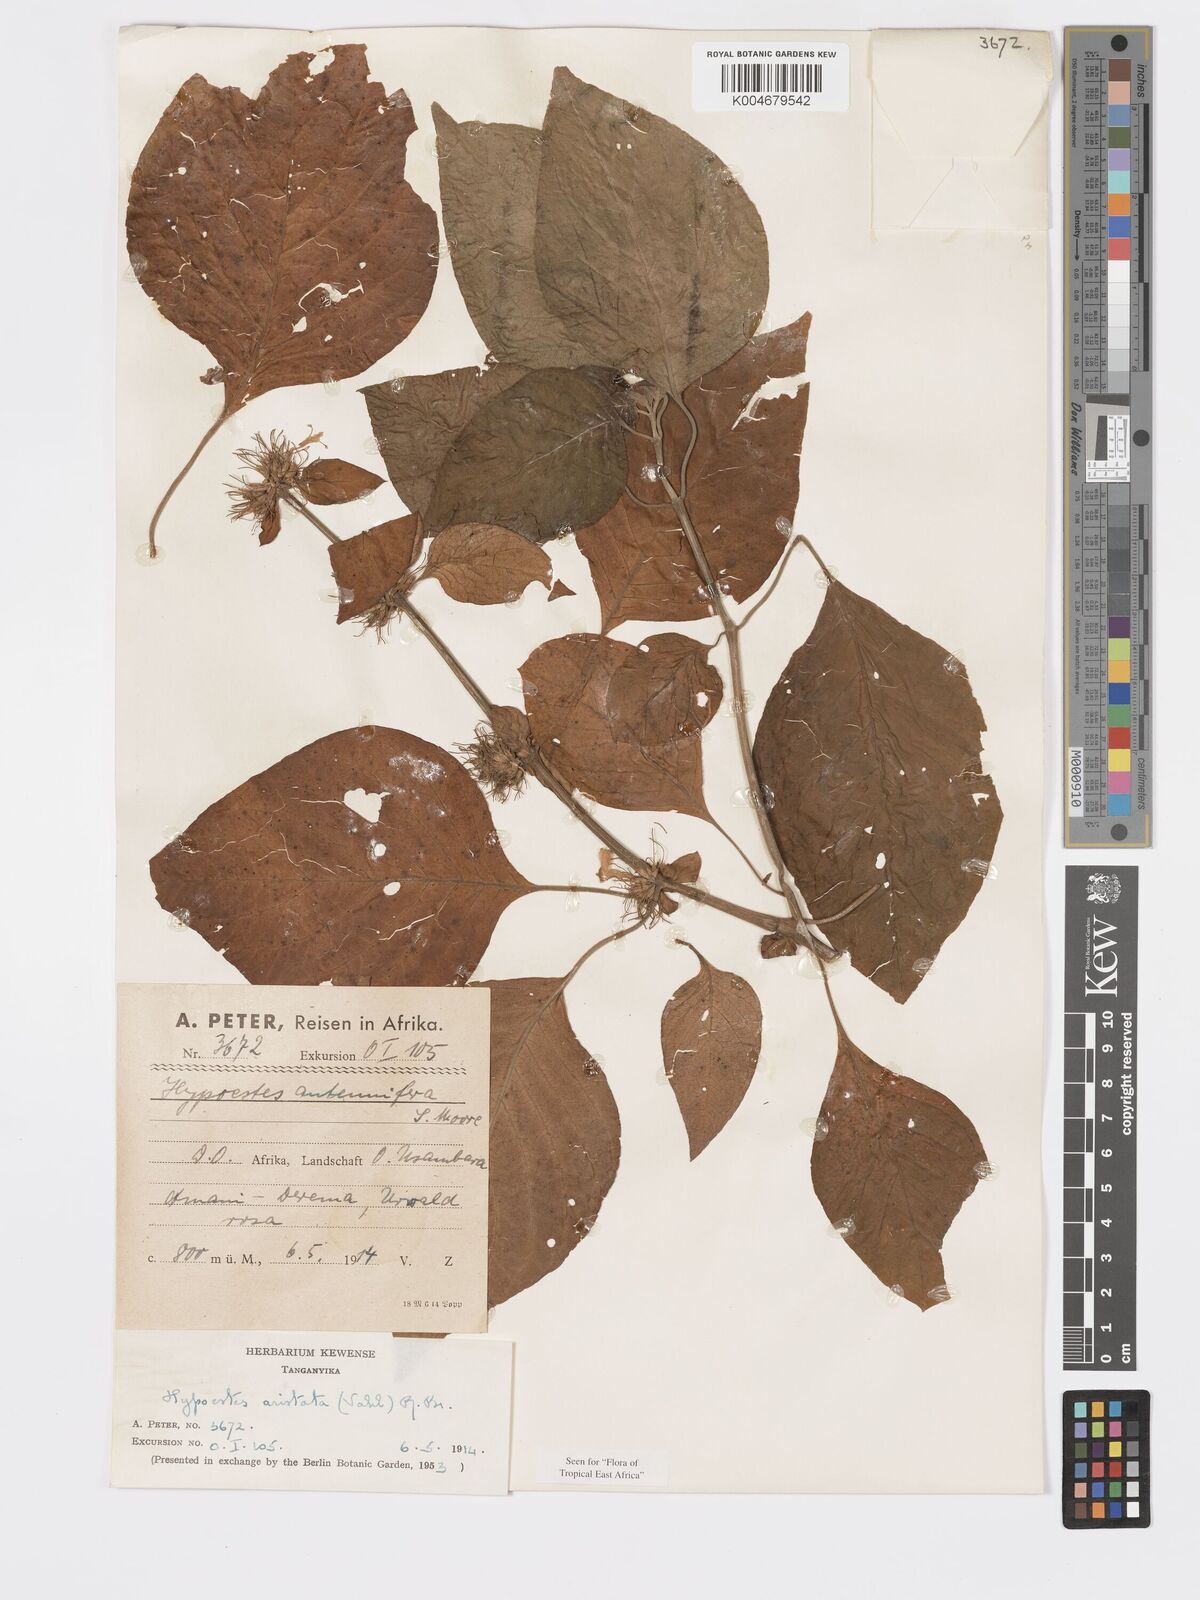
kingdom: Plantae
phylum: Tracheophyta
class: Magnoliopsida
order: Lamiales
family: Acanthaceae
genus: Hypoestes
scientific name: Hypoestes aristata
